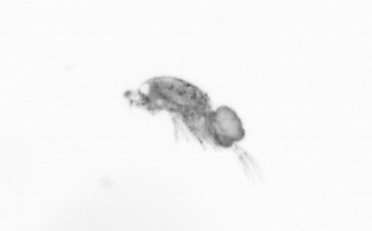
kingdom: Animalia
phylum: Arthropoda
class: Copepoda
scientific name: Copepoda
